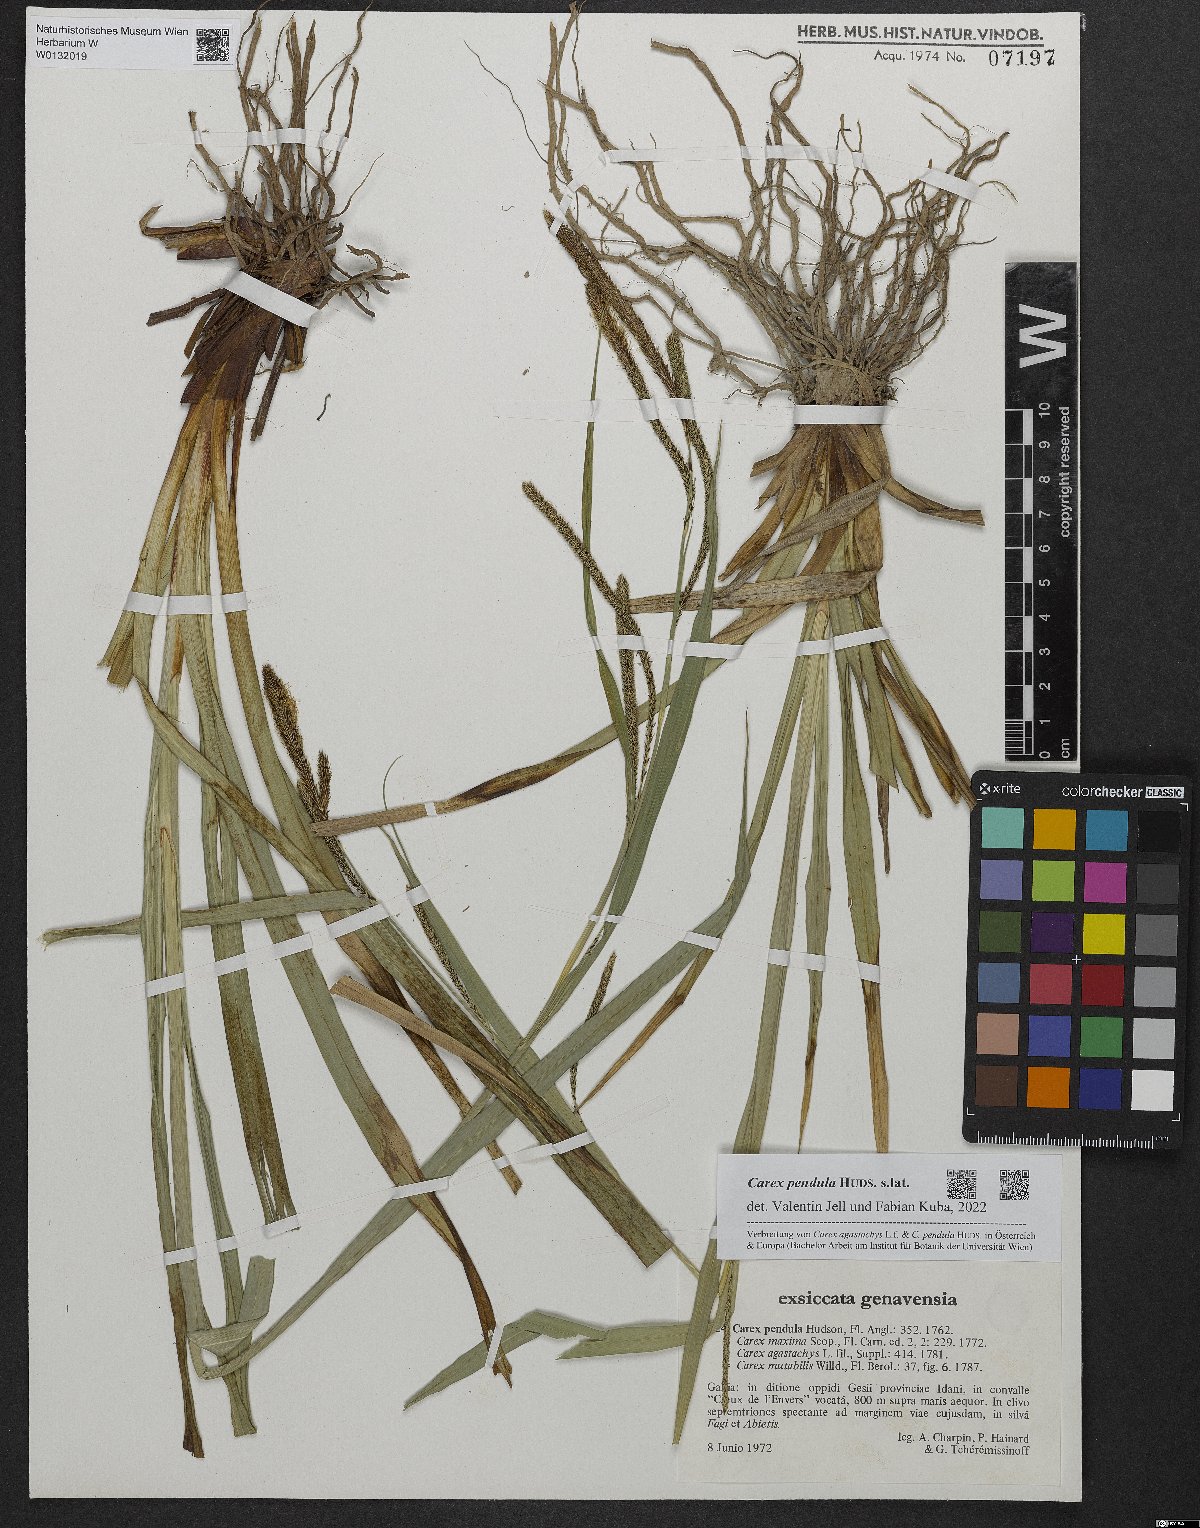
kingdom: Plantae
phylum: Tracheophyta
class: Liliopsida
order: Poales
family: Cyperaceae
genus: Carex
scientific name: Carex pendula
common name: Pendulous sedge
